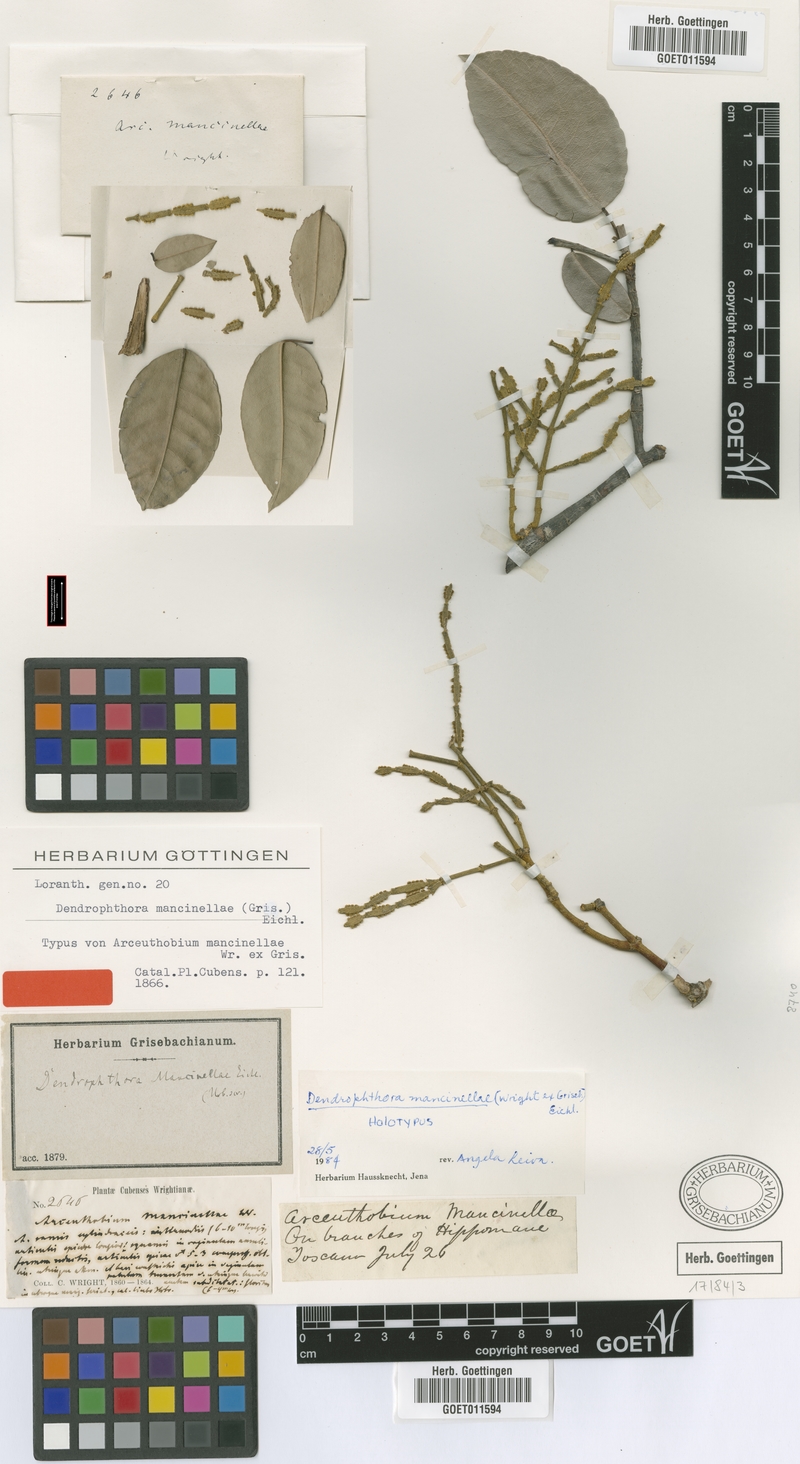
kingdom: Plantae
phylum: Tracheophyta
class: Magnoliopsida
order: Santalales
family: Viscaceae
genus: Dendrophthora
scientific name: Dendrophthora mancinellae
